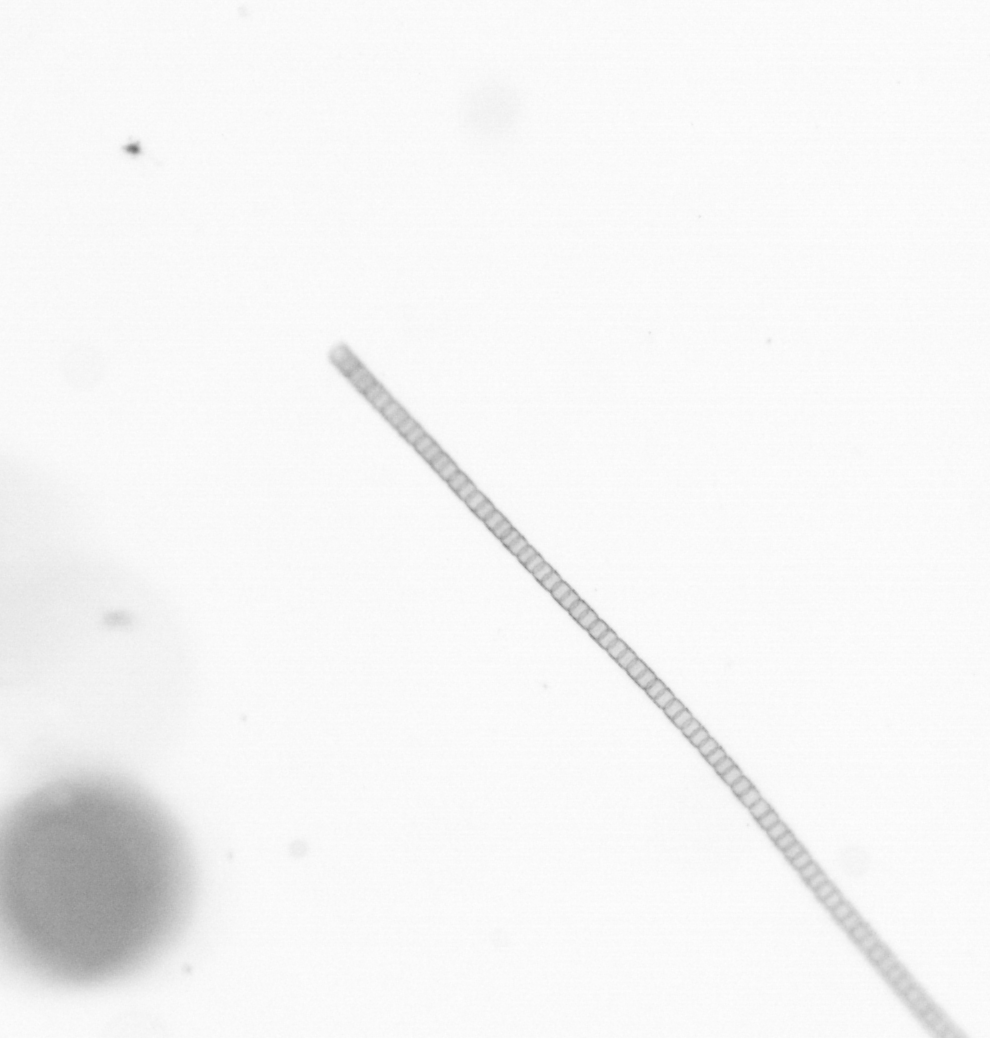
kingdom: Chromista
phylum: Ochrophyta
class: Bacillariophyceae
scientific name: Bacillariophyceae
